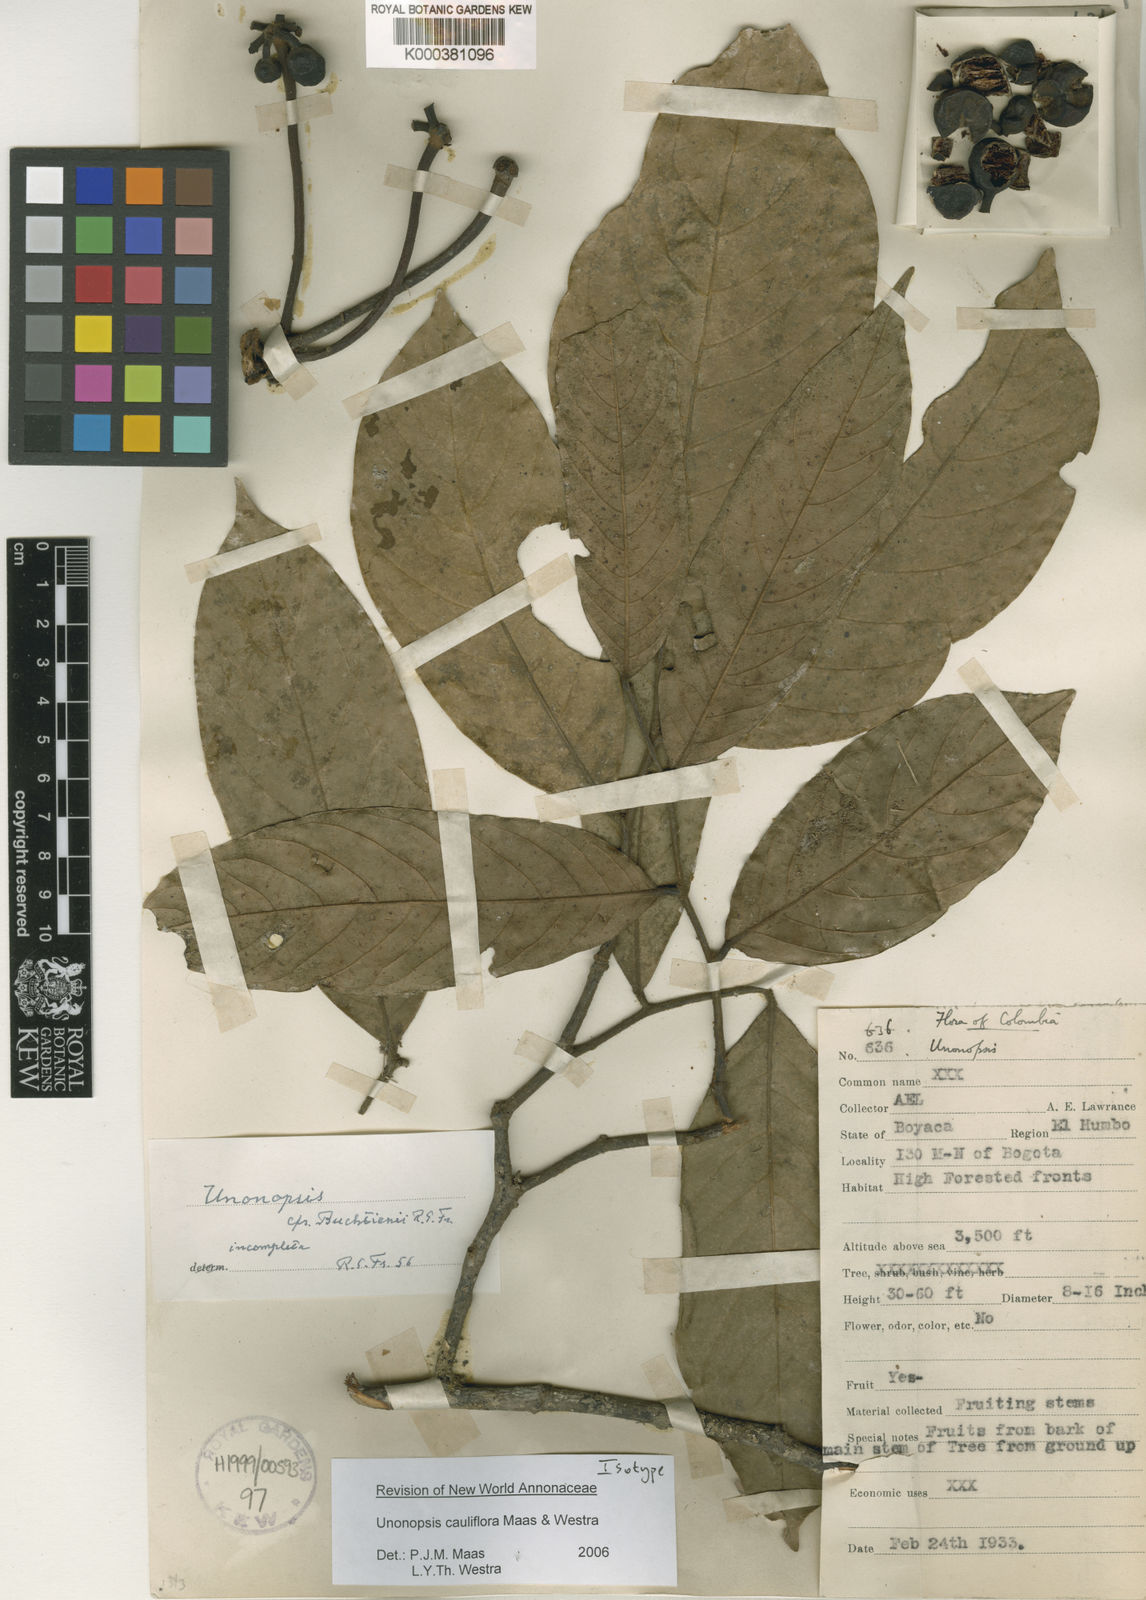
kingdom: Plantae
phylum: Tracheophyta
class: Magnoliopsida
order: Magnoliales
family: Annonaceae
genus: Unonopsis
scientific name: Unonopsis cauliflora
